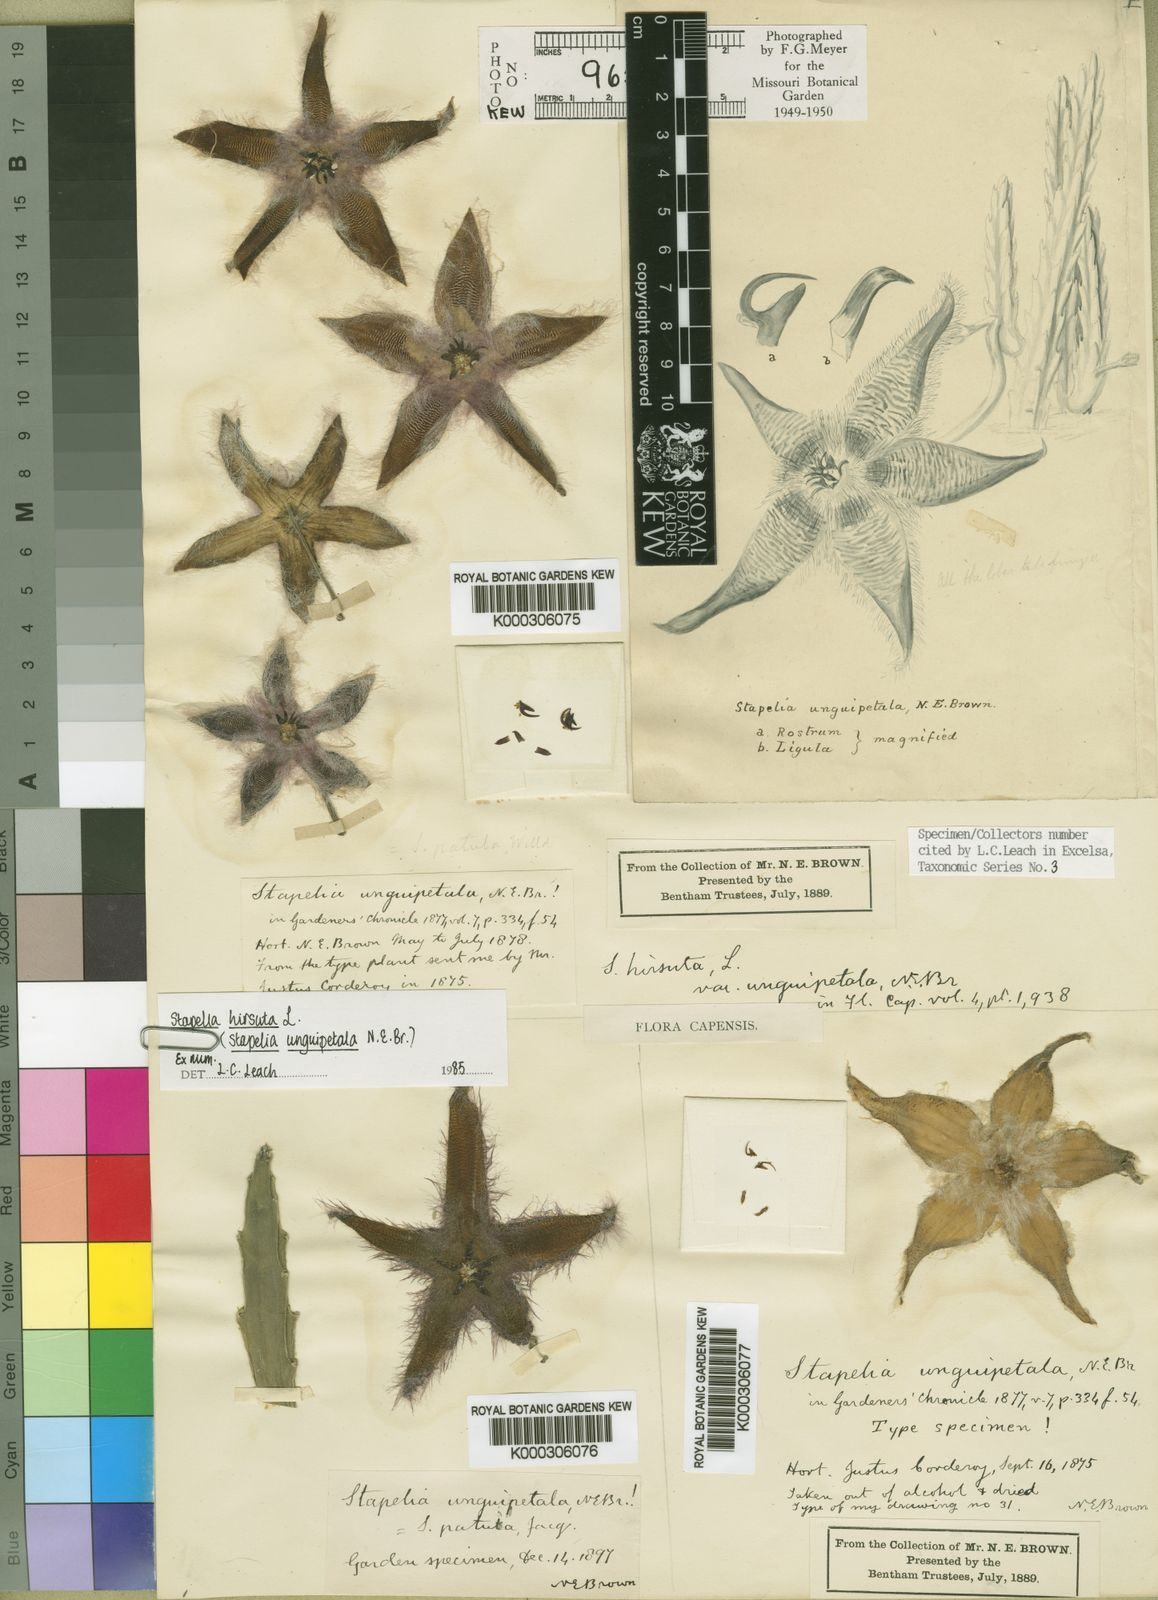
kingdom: Plantae
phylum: Tracheophyta
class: Magnoliopsida
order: Gentianales
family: Apocynaceae
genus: Ceropegia
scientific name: Ceropegia pulvinata
